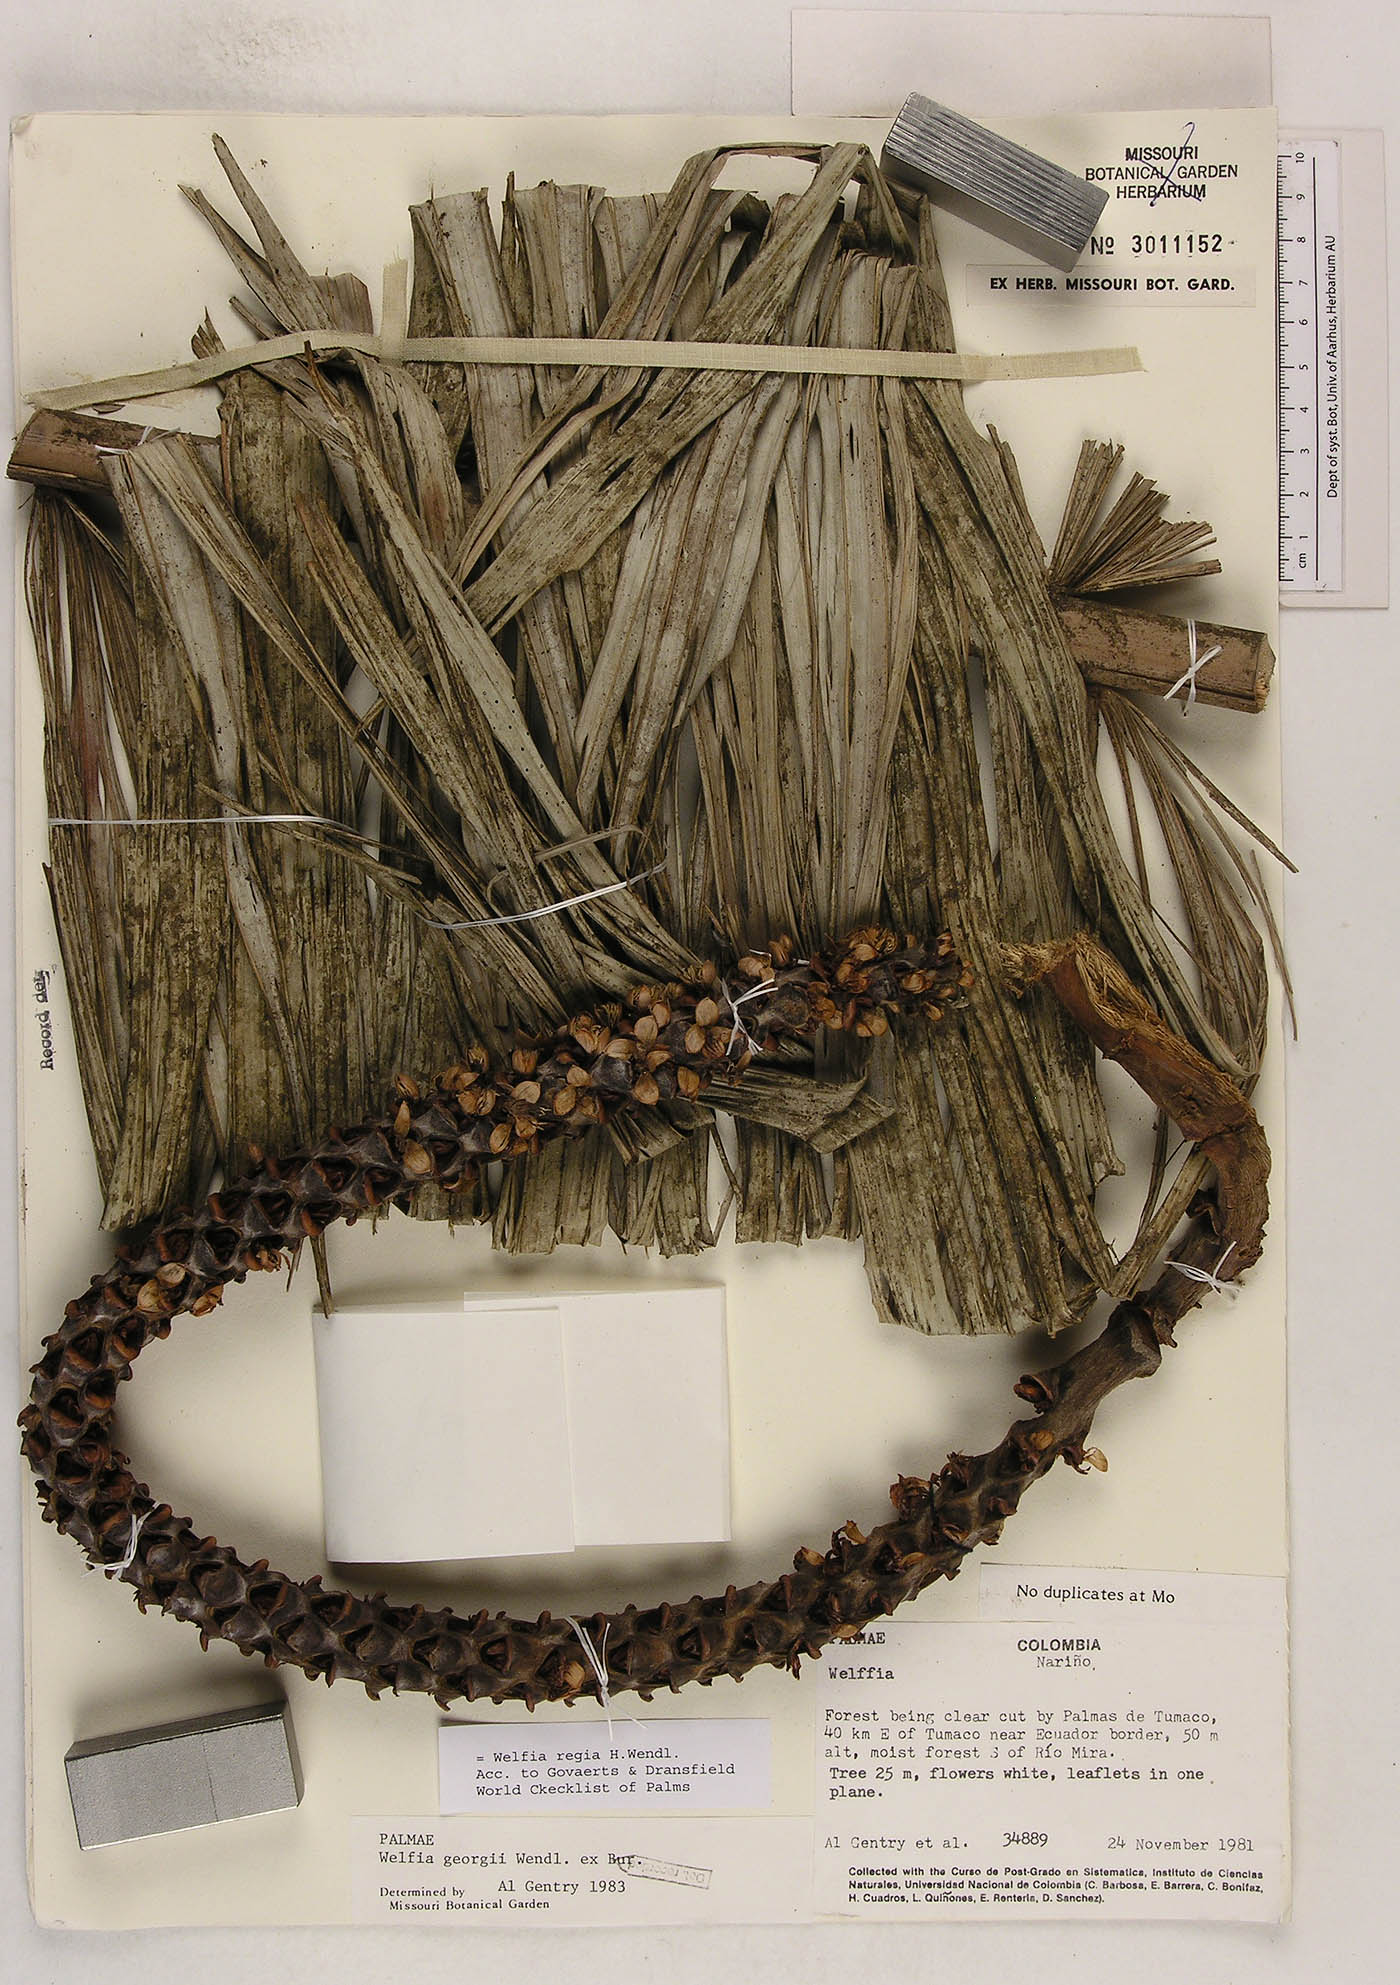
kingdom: Plantae
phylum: Tracheophyta
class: Liliopsida
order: Arecales
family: Arecaceae
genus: Welfia
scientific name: Welfia regia
